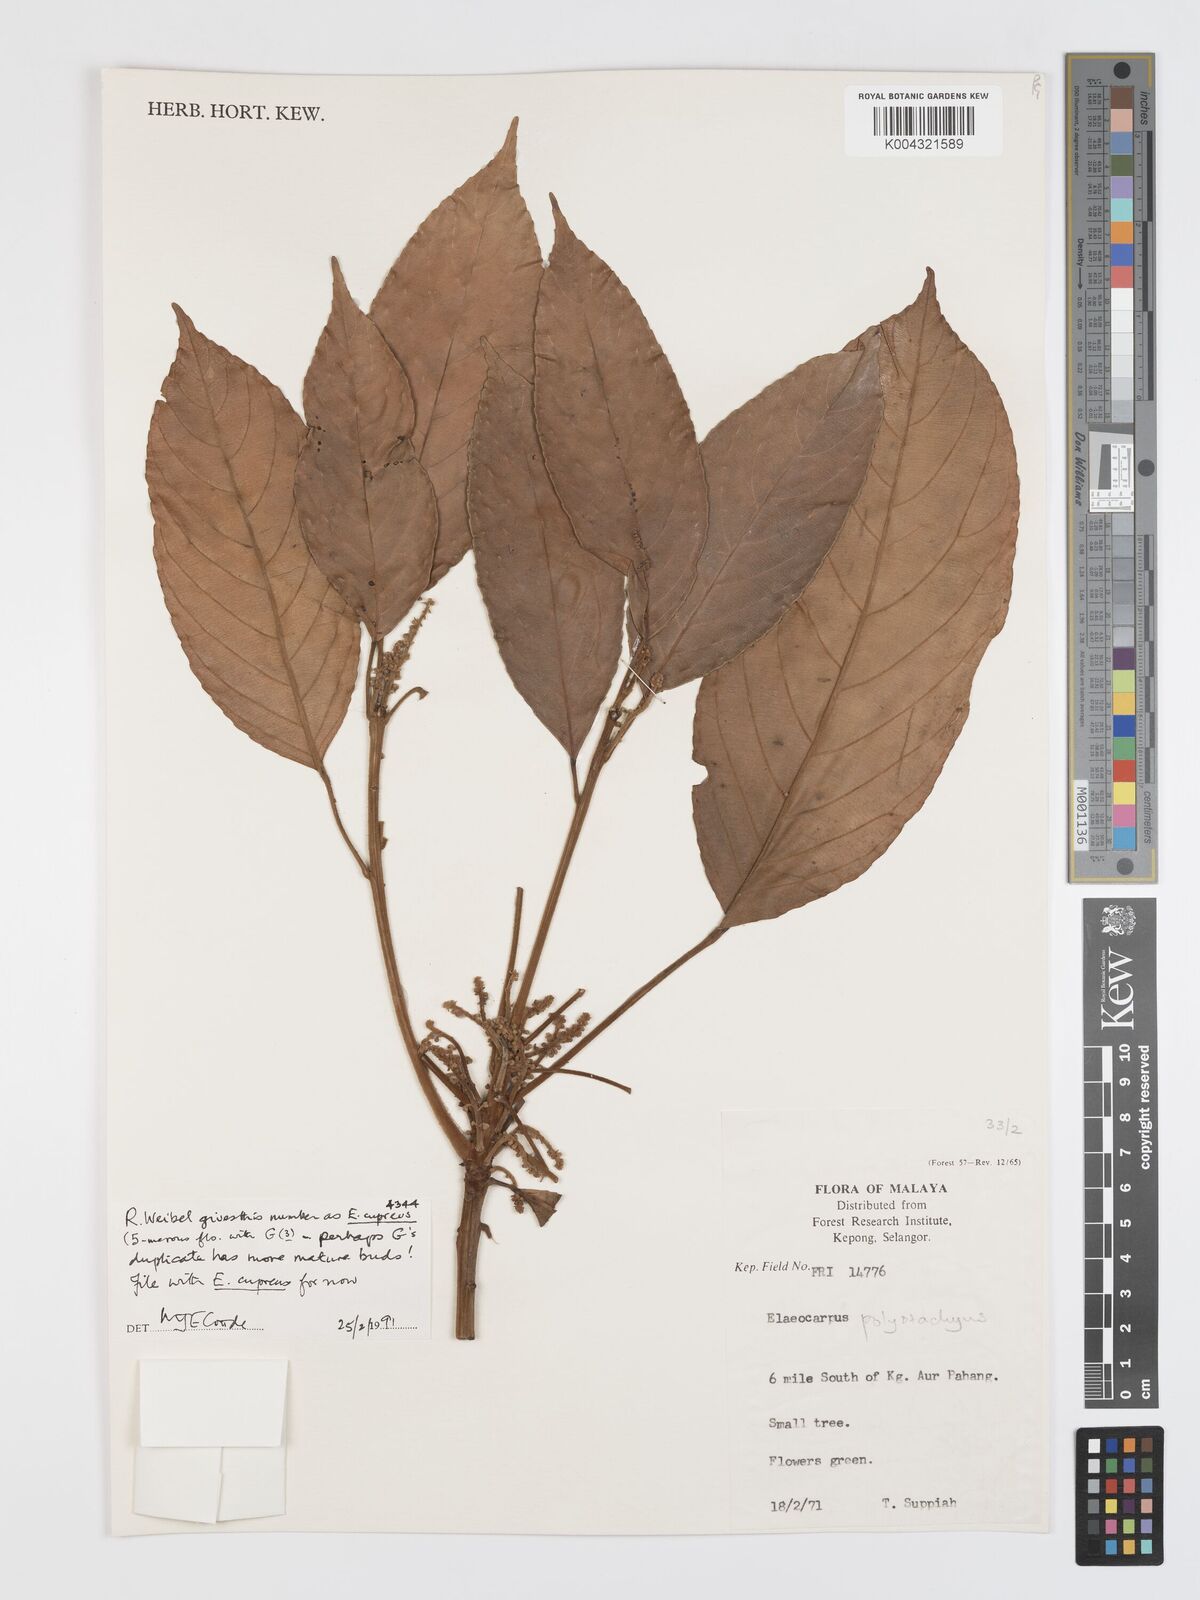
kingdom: Plantae
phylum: Tracheophyta
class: Magnoliopsida
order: Oxalidales
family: Elaeocarpaceae
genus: Elaeocarpus
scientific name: Elaeocarpus cupreus
